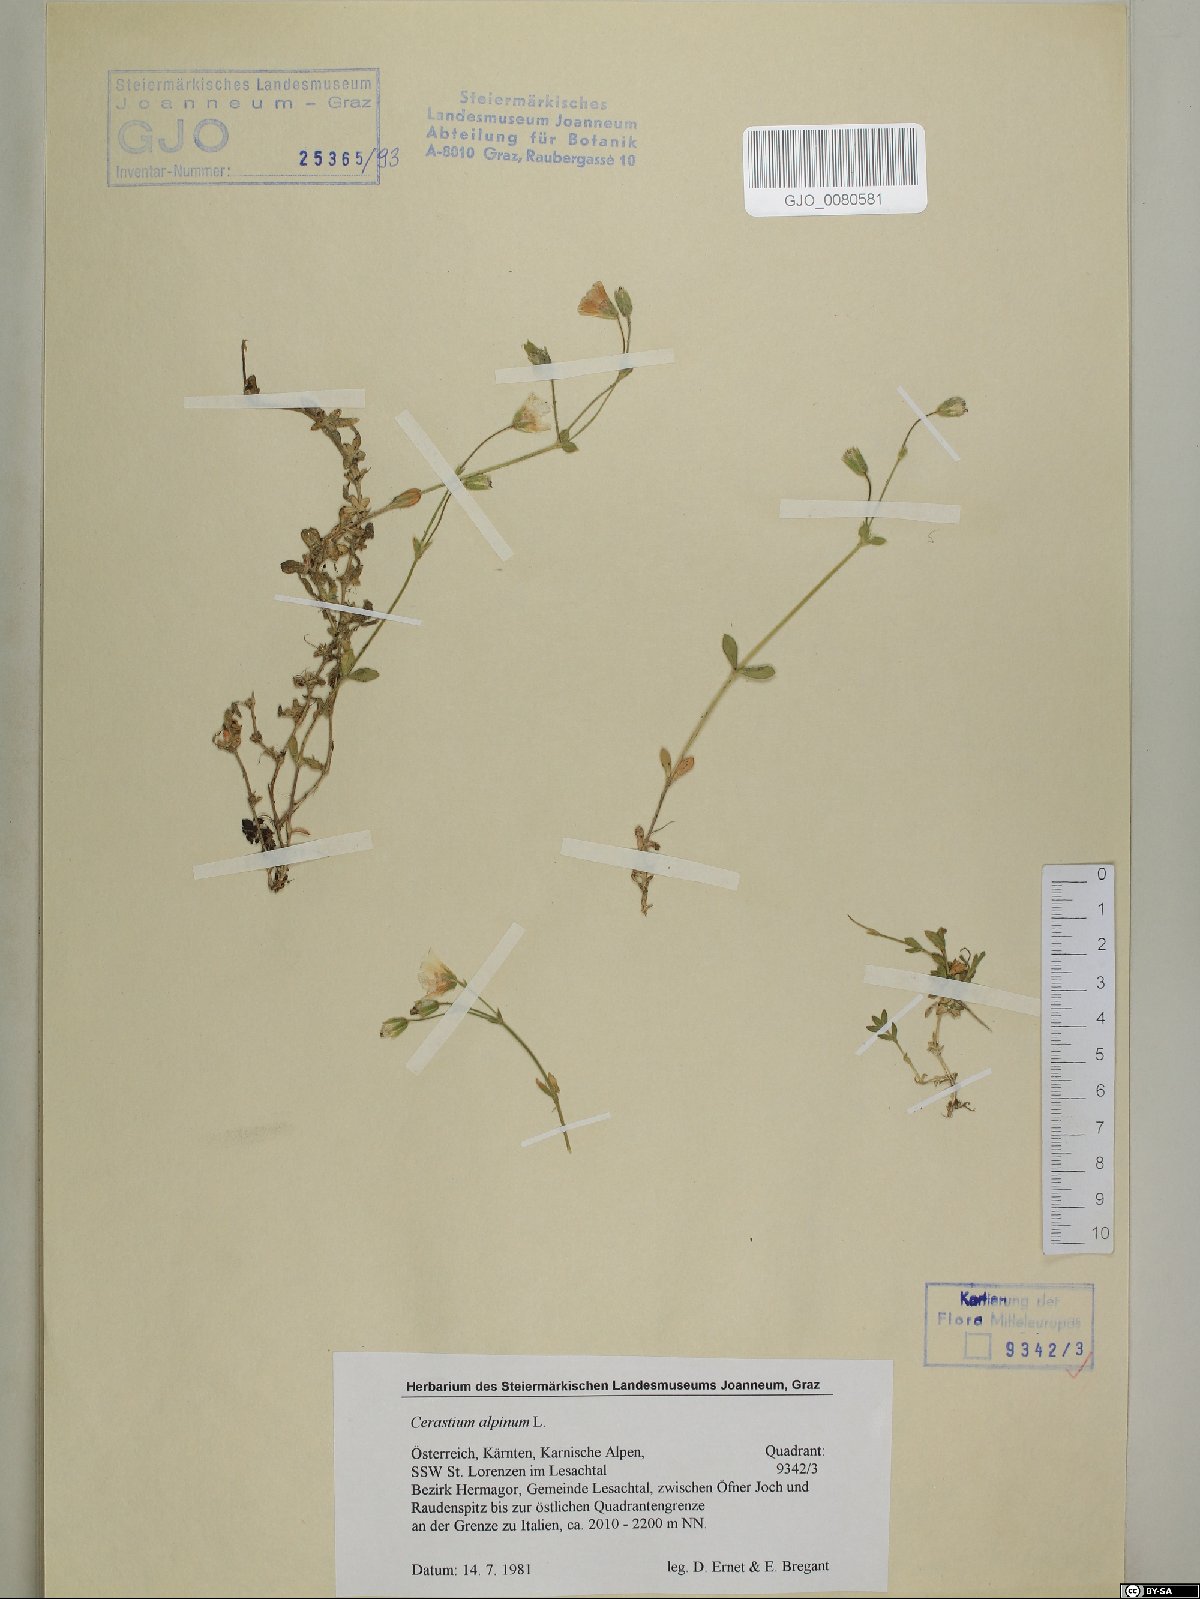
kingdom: Plantae
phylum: Tracheophyta
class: Magnoliopsida
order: Caryophyllales
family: Caryophyllaceae
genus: Cerastium
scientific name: Cerastium alpinum
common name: Alpine mouse-ear
